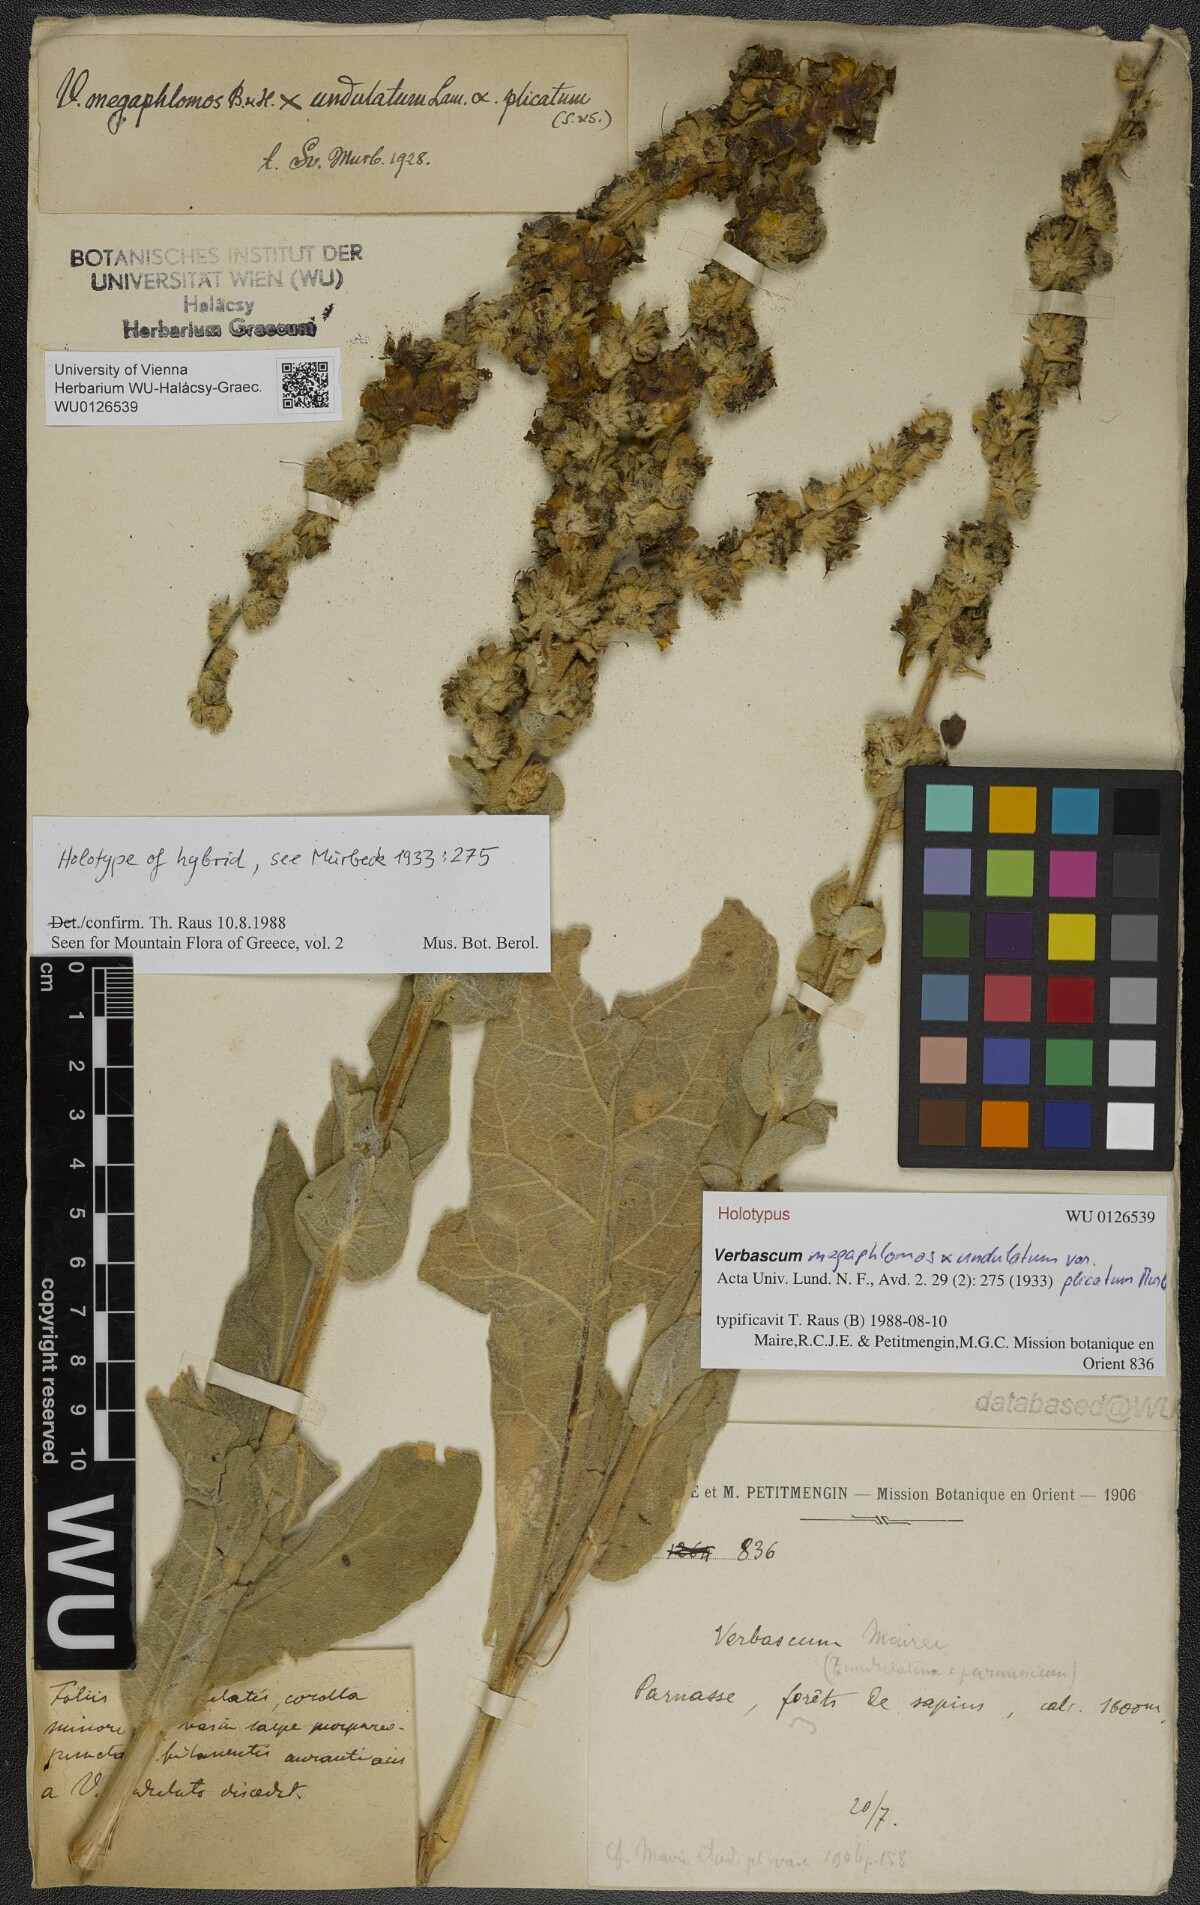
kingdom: Plantae
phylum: Tracheophyta
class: Magnoliopsida
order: Lamiales
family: Scrophulariaceae
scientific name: Scrophulariaceae
